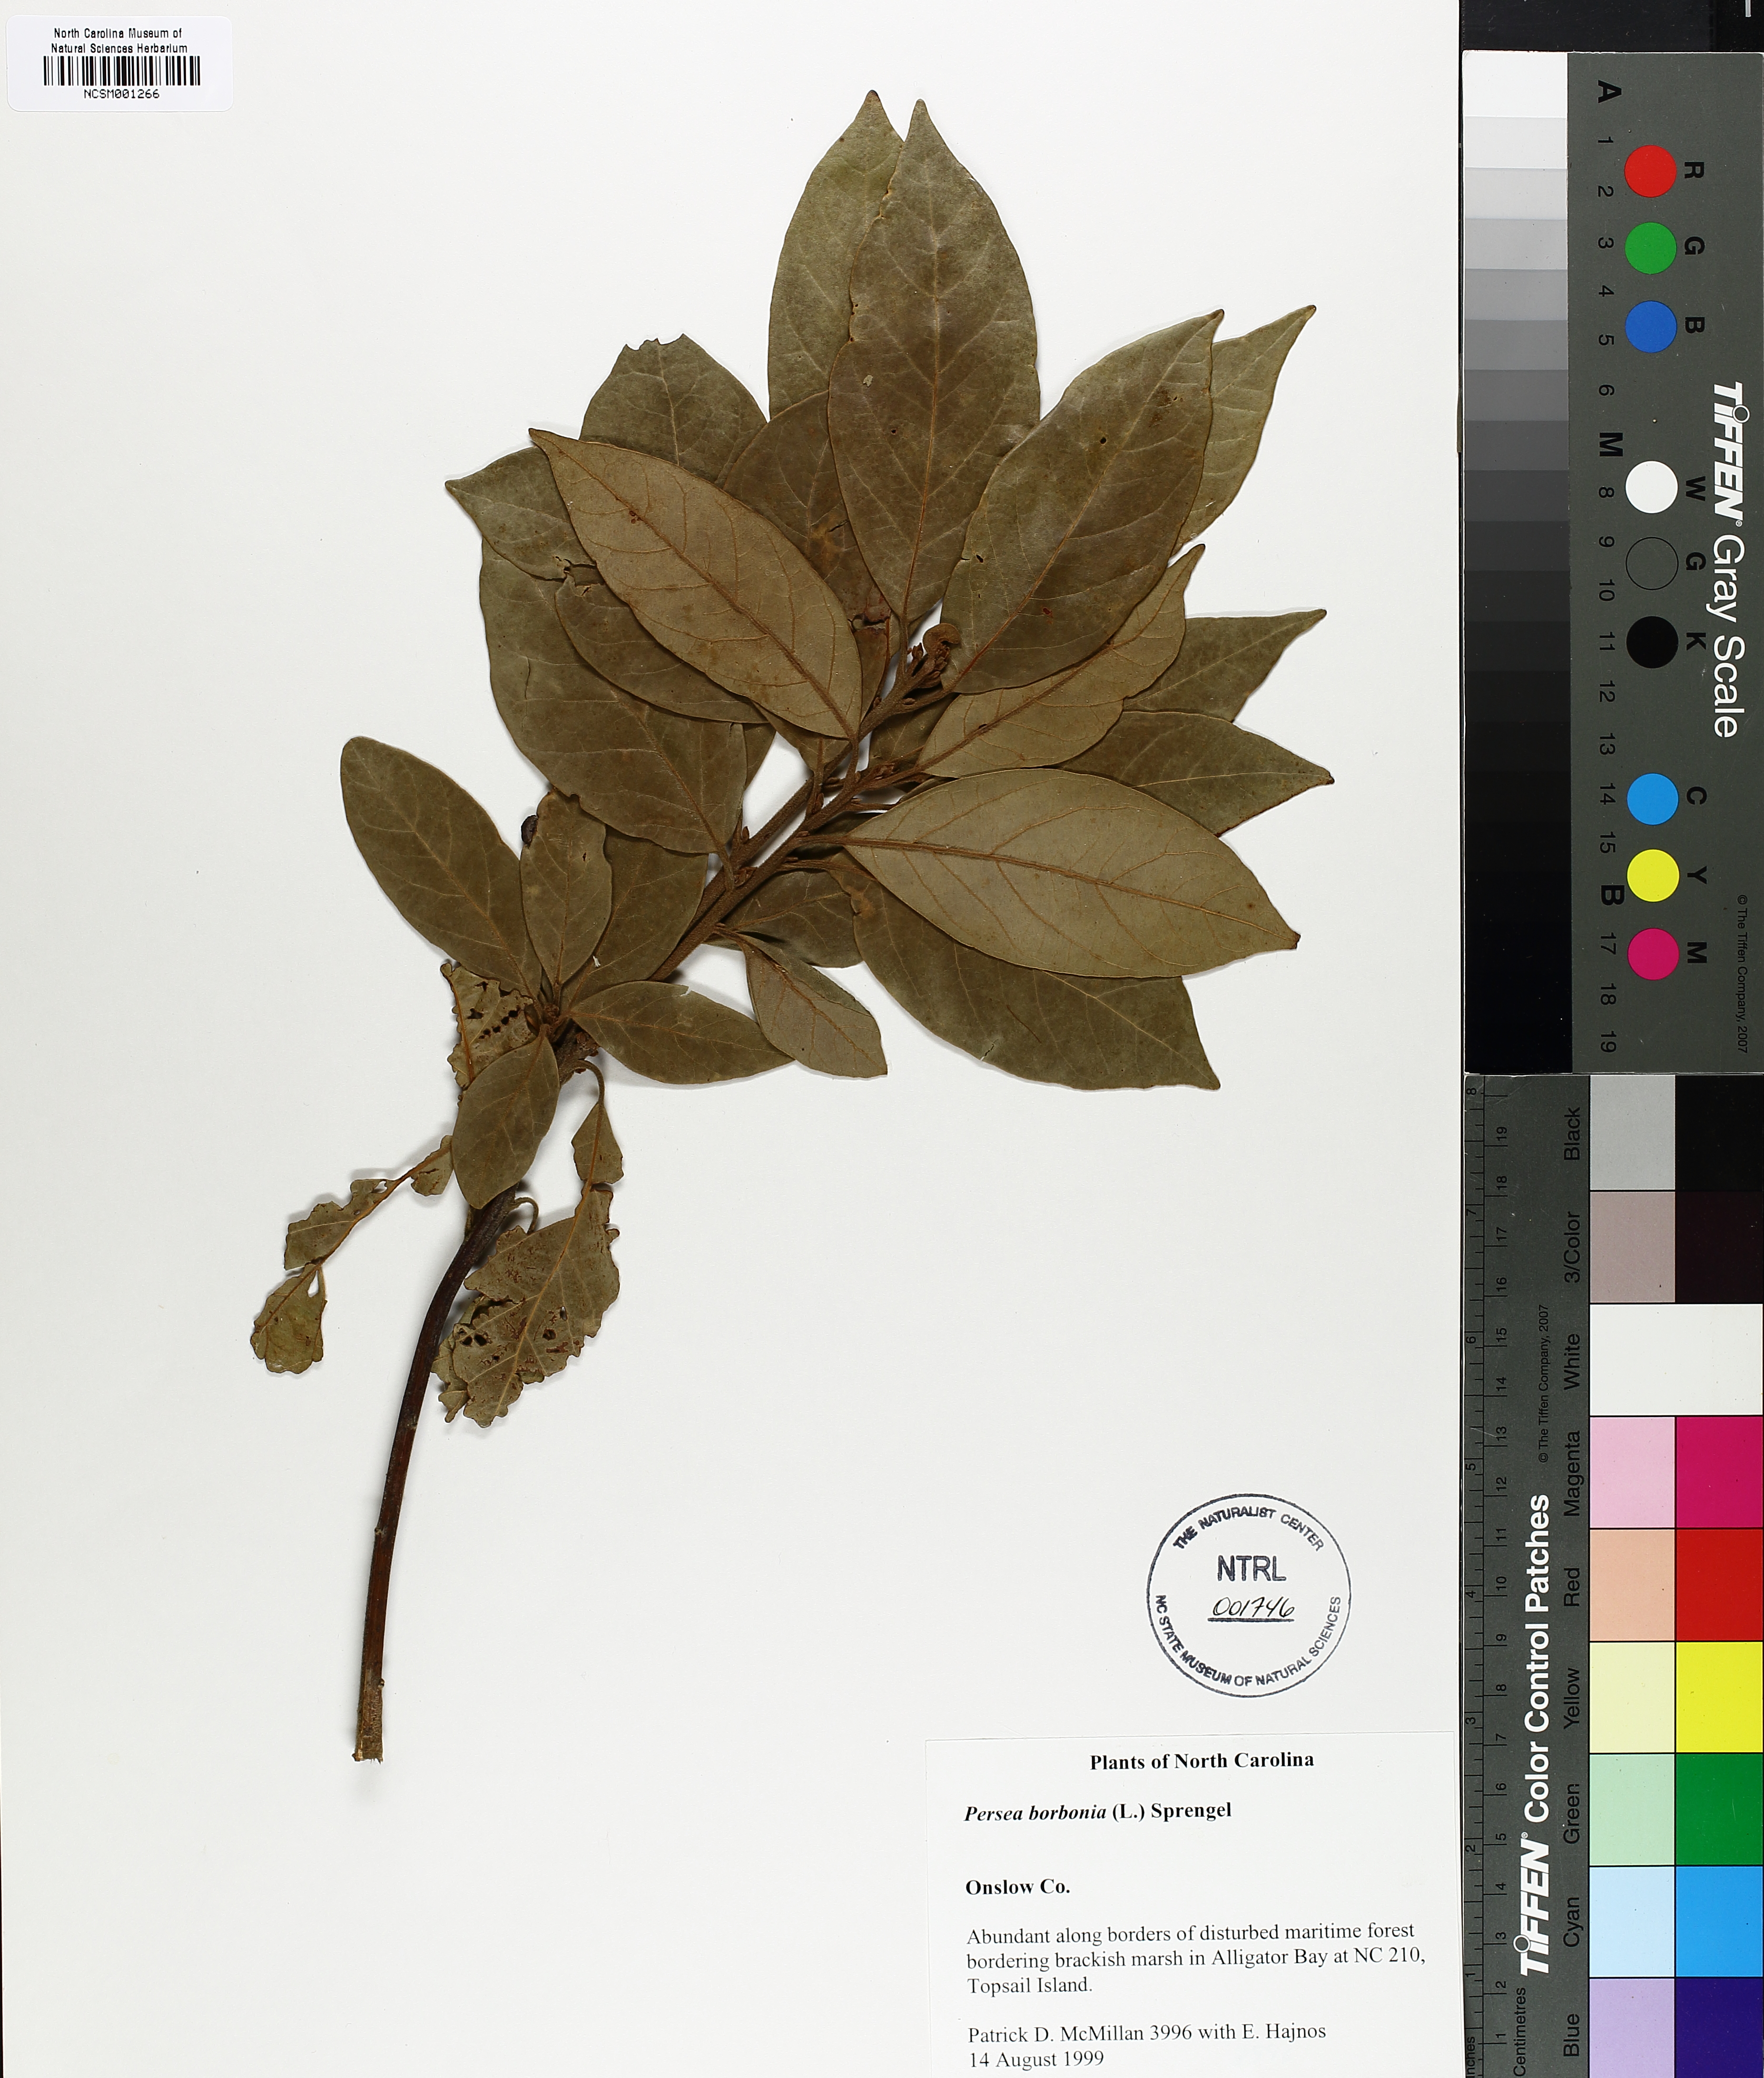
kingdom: Plantae
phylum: Tracheophyta
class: Magnoliopsida
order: Laurales
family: Lauraceae
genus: Persea
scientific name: Persea borbonia
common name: Redbay
